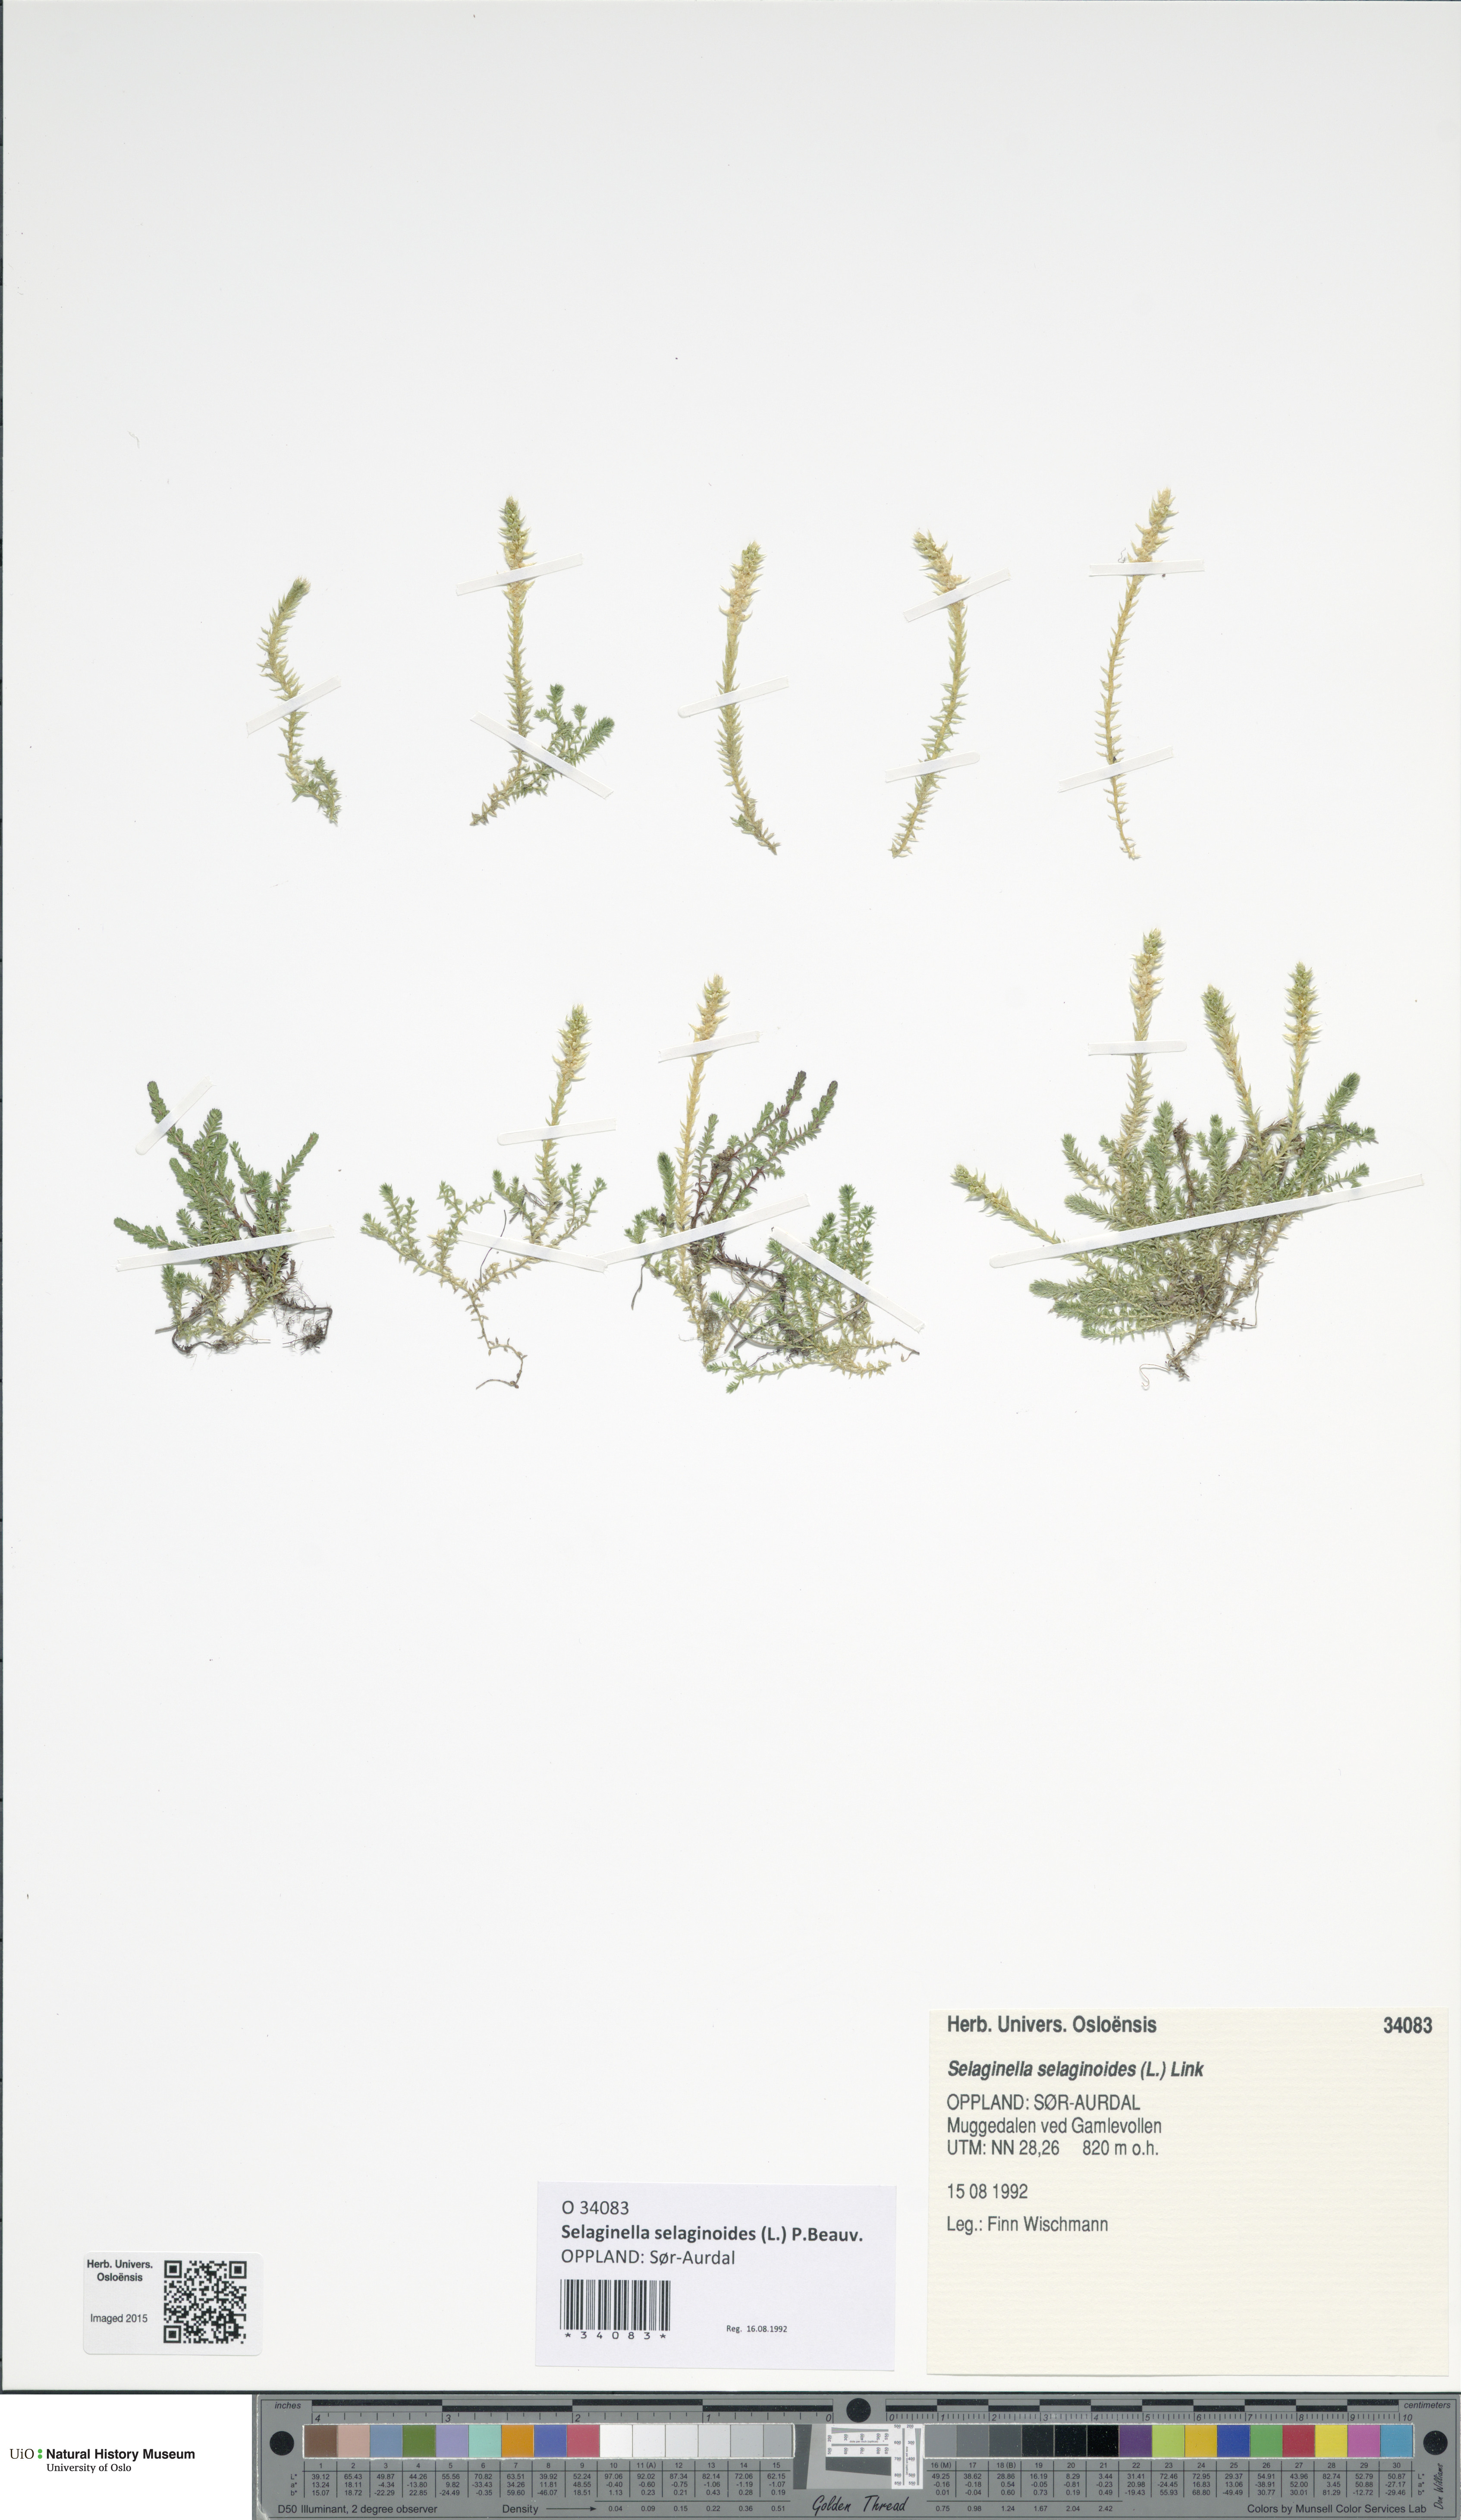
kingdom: Plantae
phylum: Tracheophyta
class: Lycopodiopsida
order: Selaginellales
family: Selaginellaceae
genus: Selaginella
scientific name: Selaginella selaginoides
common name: Prickly mountain-moss
